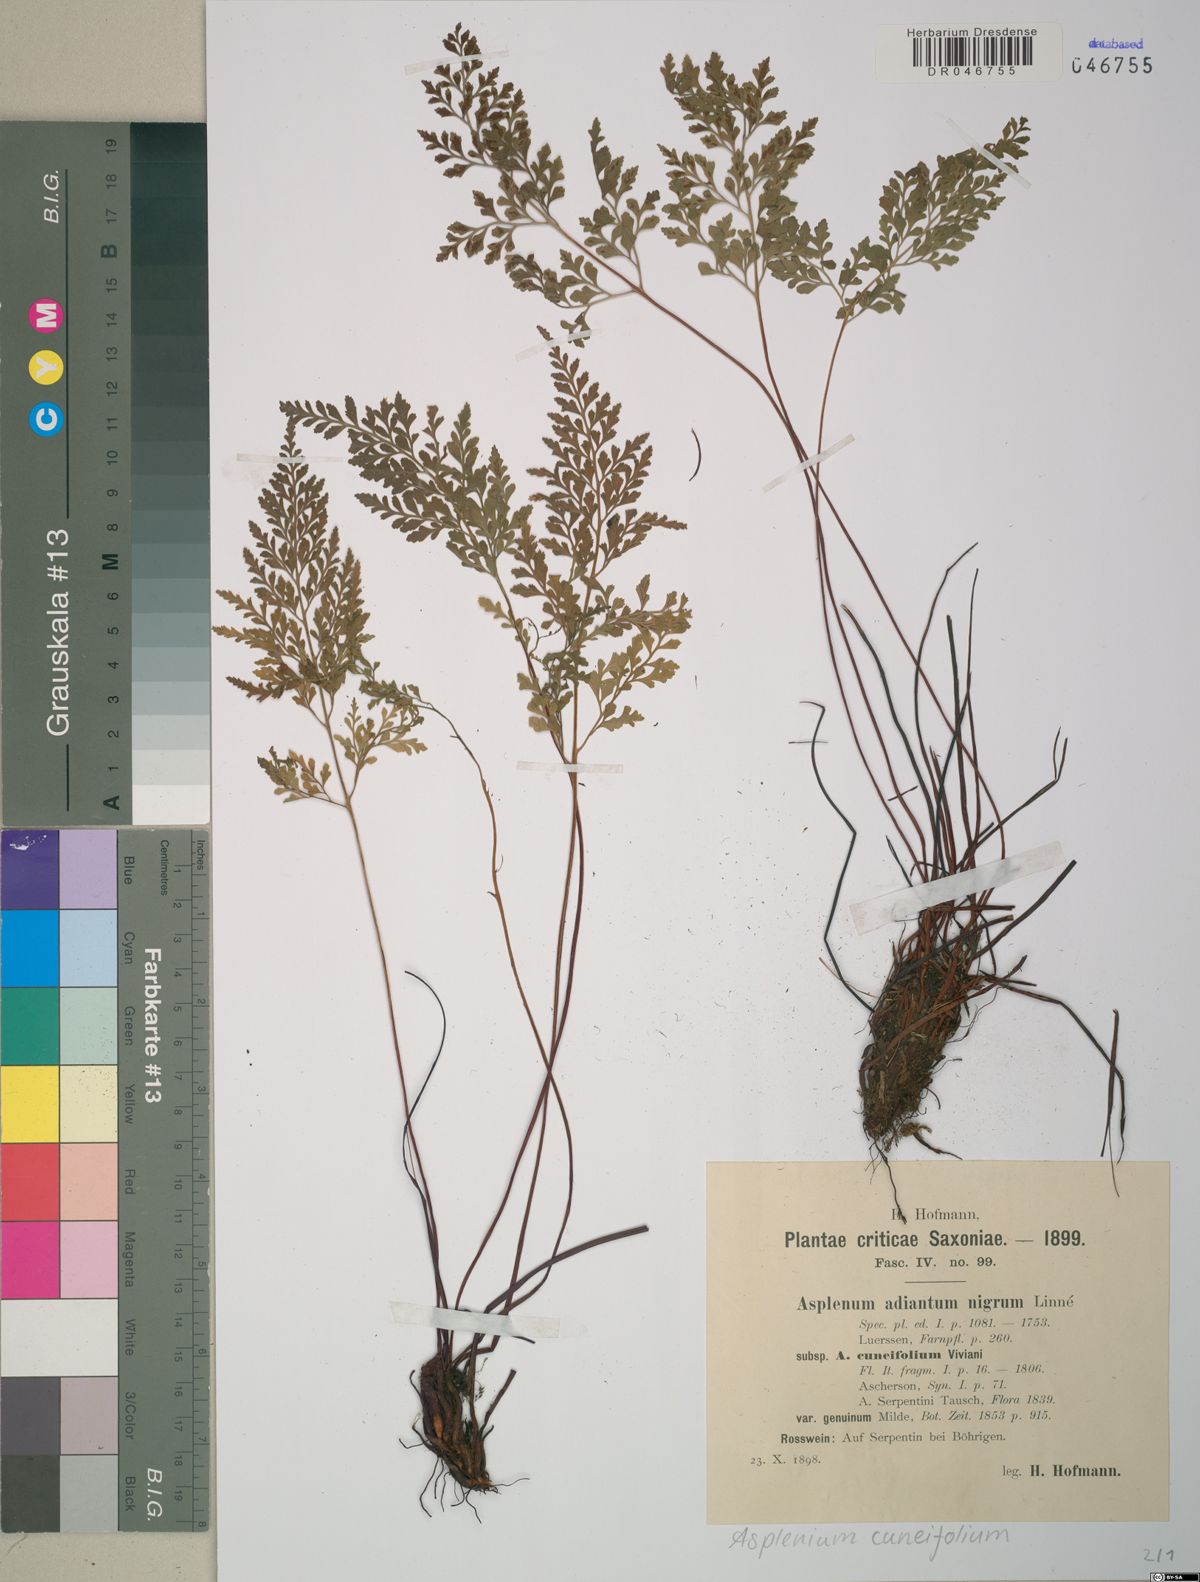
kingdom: Plantae
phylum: Tracheophyta
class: Polypodiopsida
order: Polypodiales
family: Aspleniaceae
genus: Asplenium
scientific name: Asplenium cuneifolium
